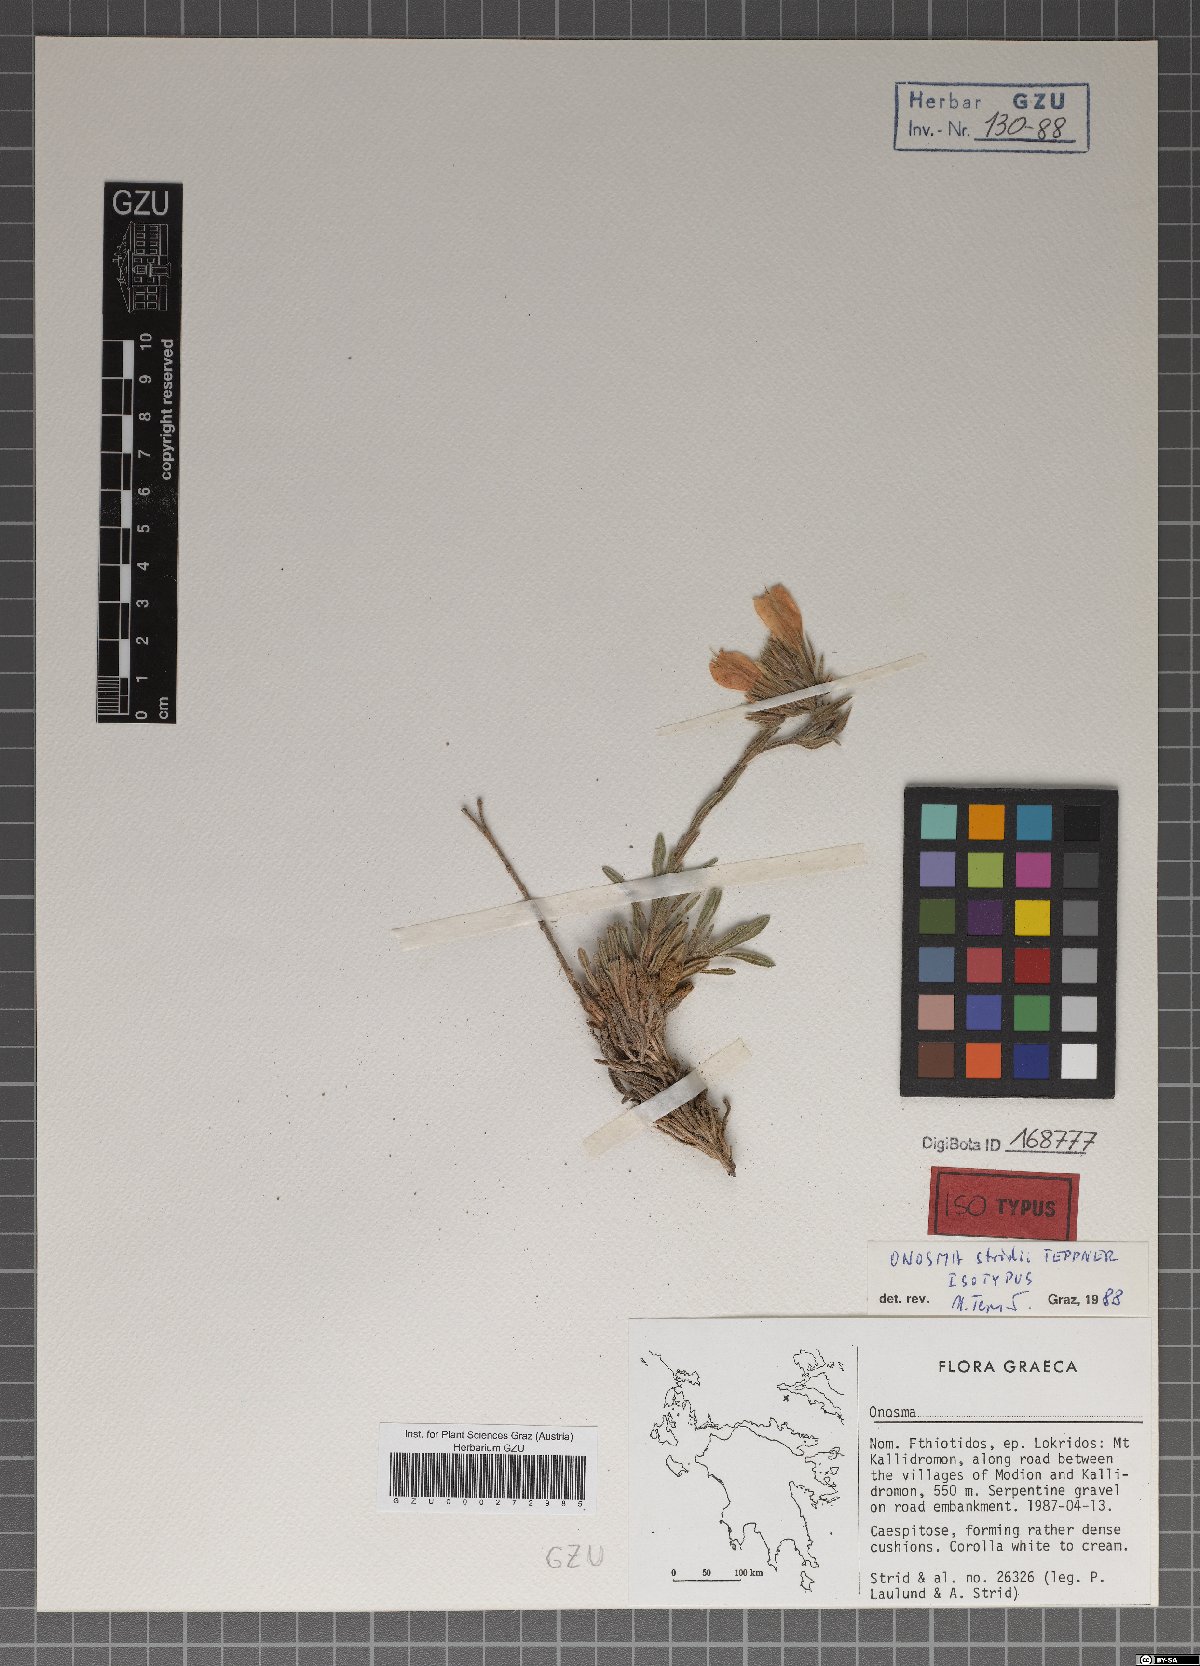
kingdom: Plantae
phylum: Tracheophyta
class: Magnoliopsida
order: Boraginales
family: Boraginaceae
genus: Onosma
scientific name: Onosma stridii
